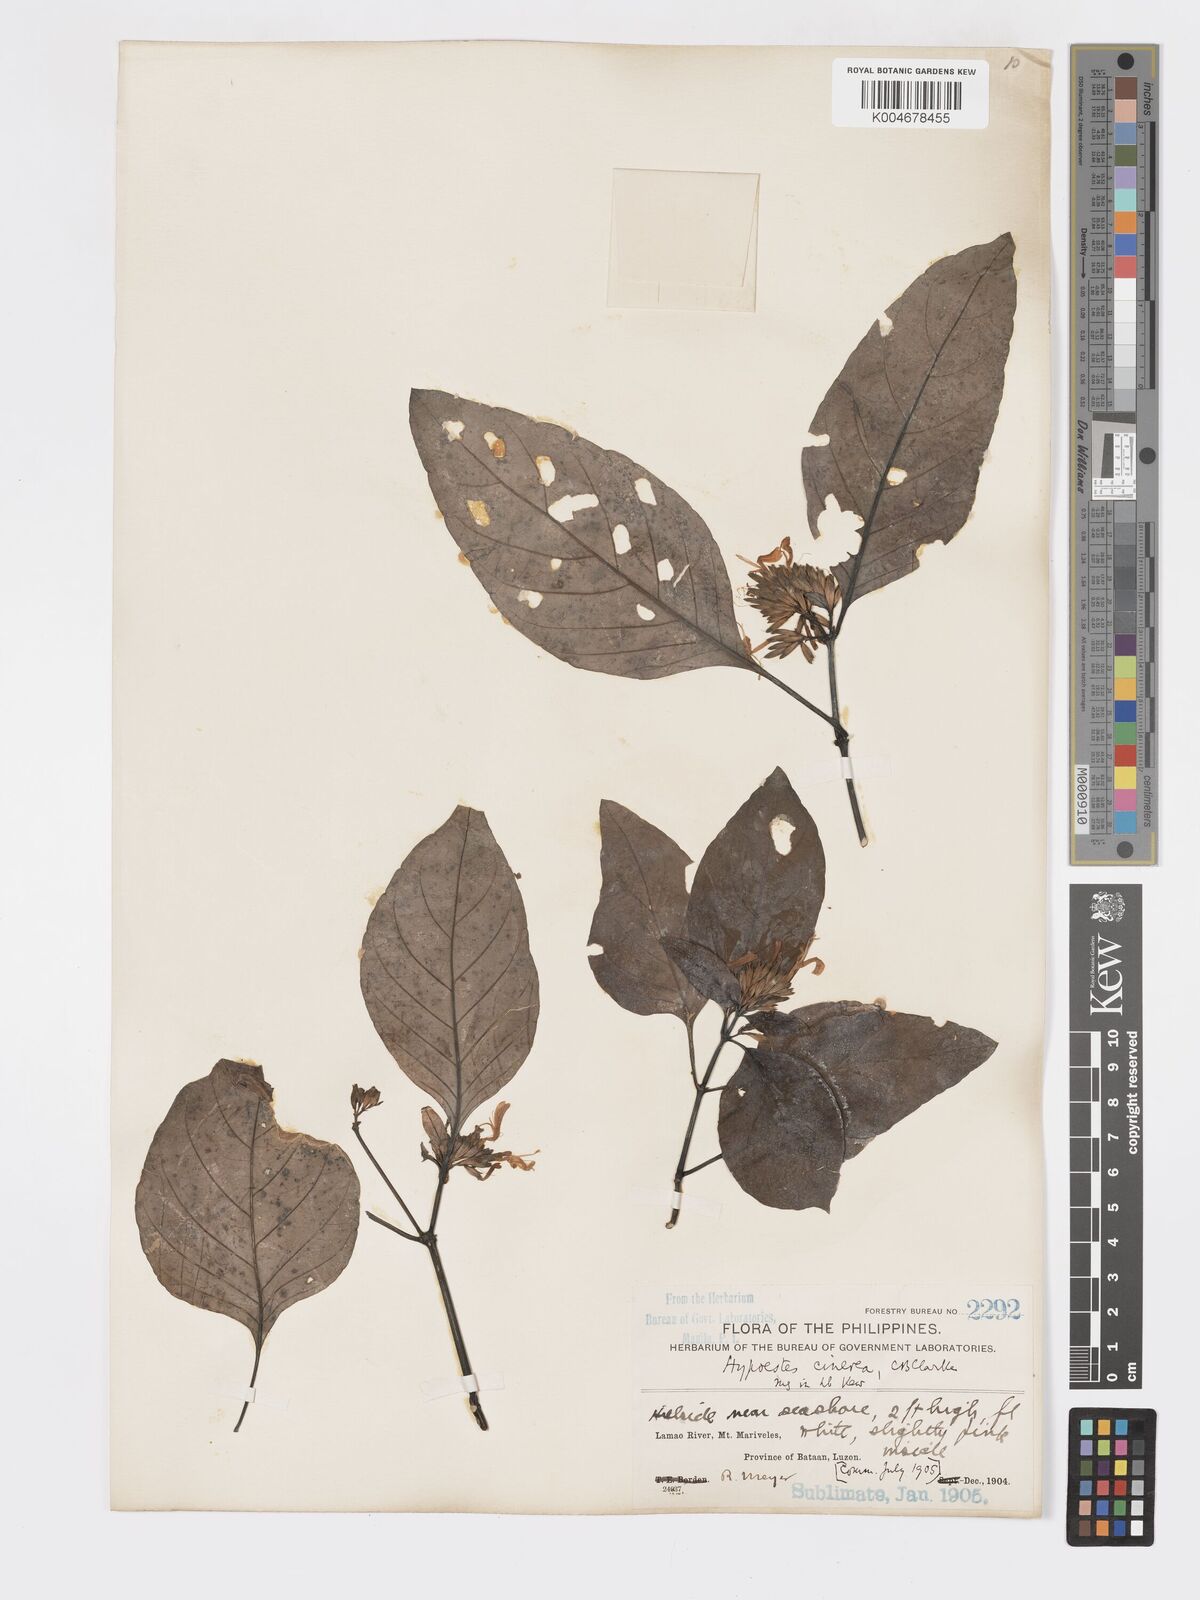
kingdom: Plantae
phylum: Tracheophyta
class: Magnoliopsida
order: Lamiales
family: Acanthaceae
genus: Hypoestes
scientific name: Hypoestes
